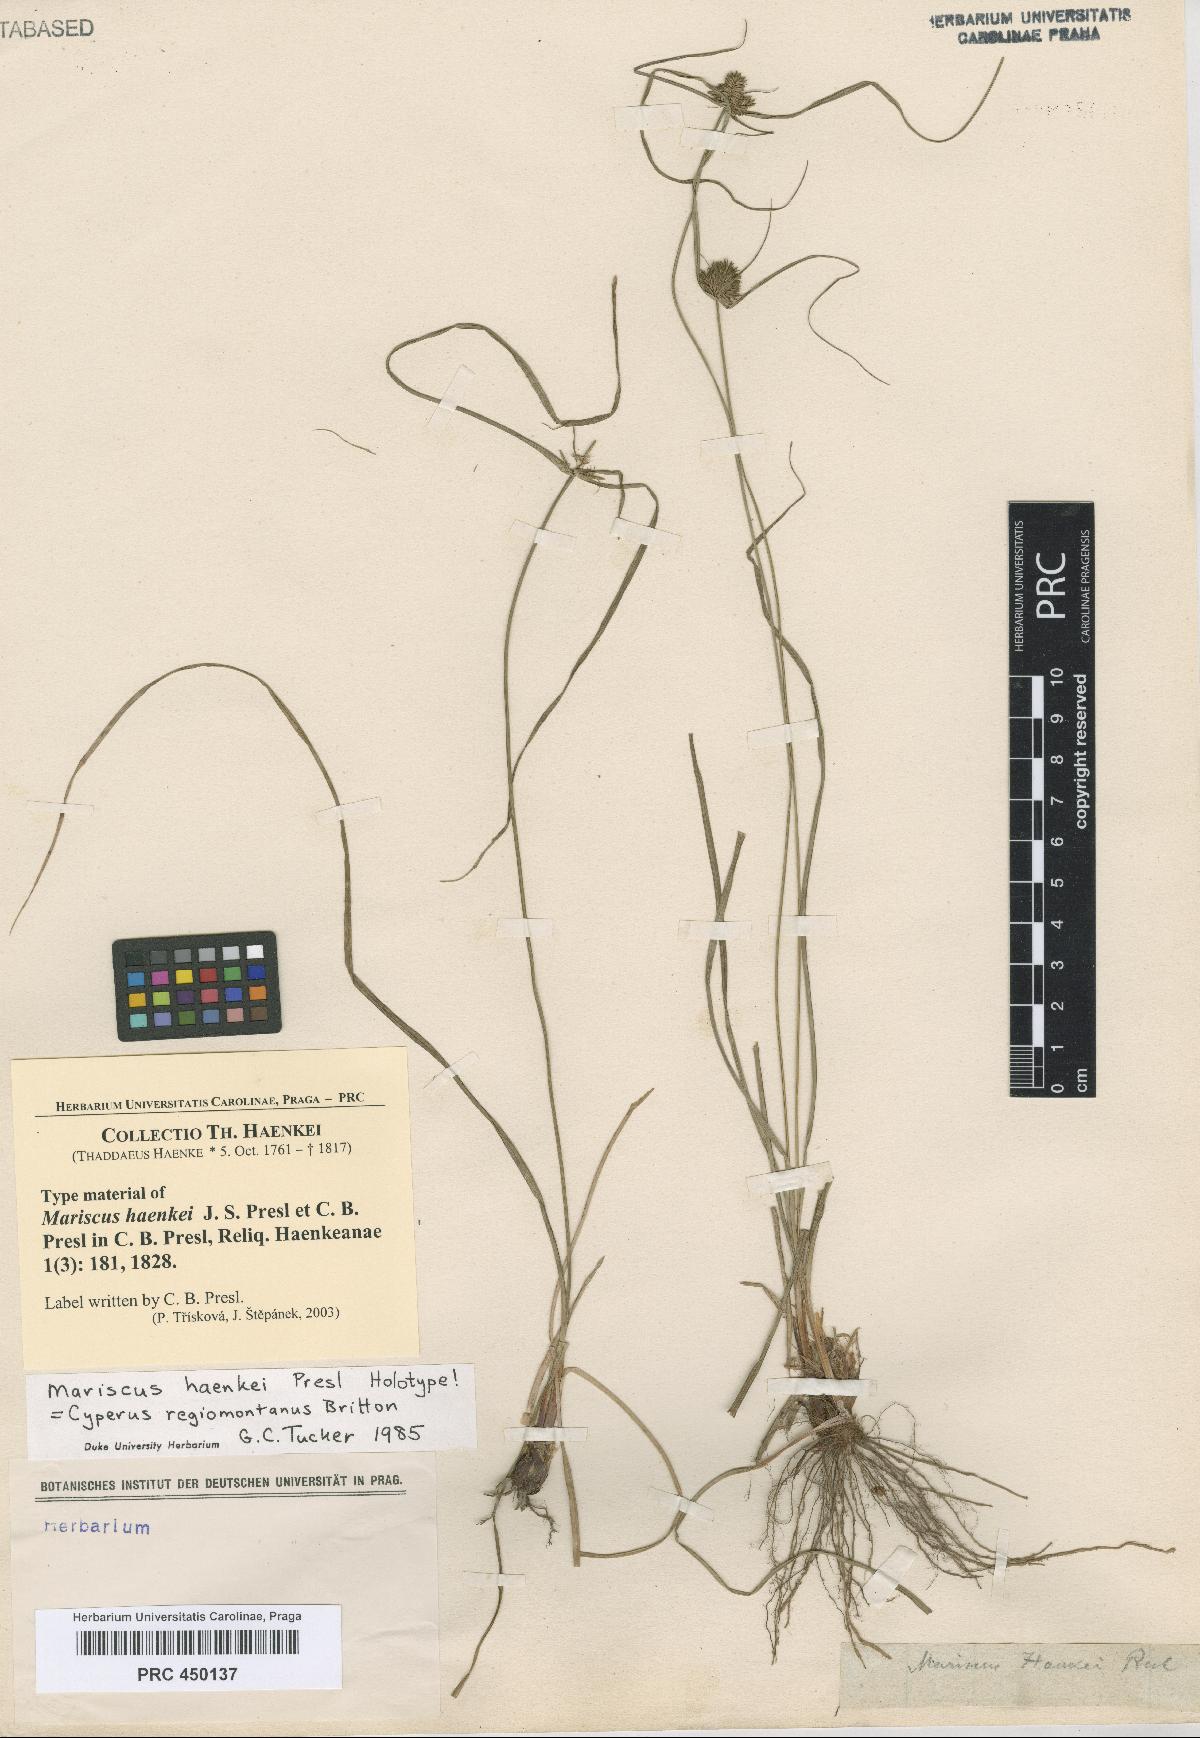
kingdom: Plantae
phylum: Tracheophyta
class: Liliopsida
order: Poales
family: Cyperaceae
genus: Cyperus
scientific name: Cyperus regiomontanus
